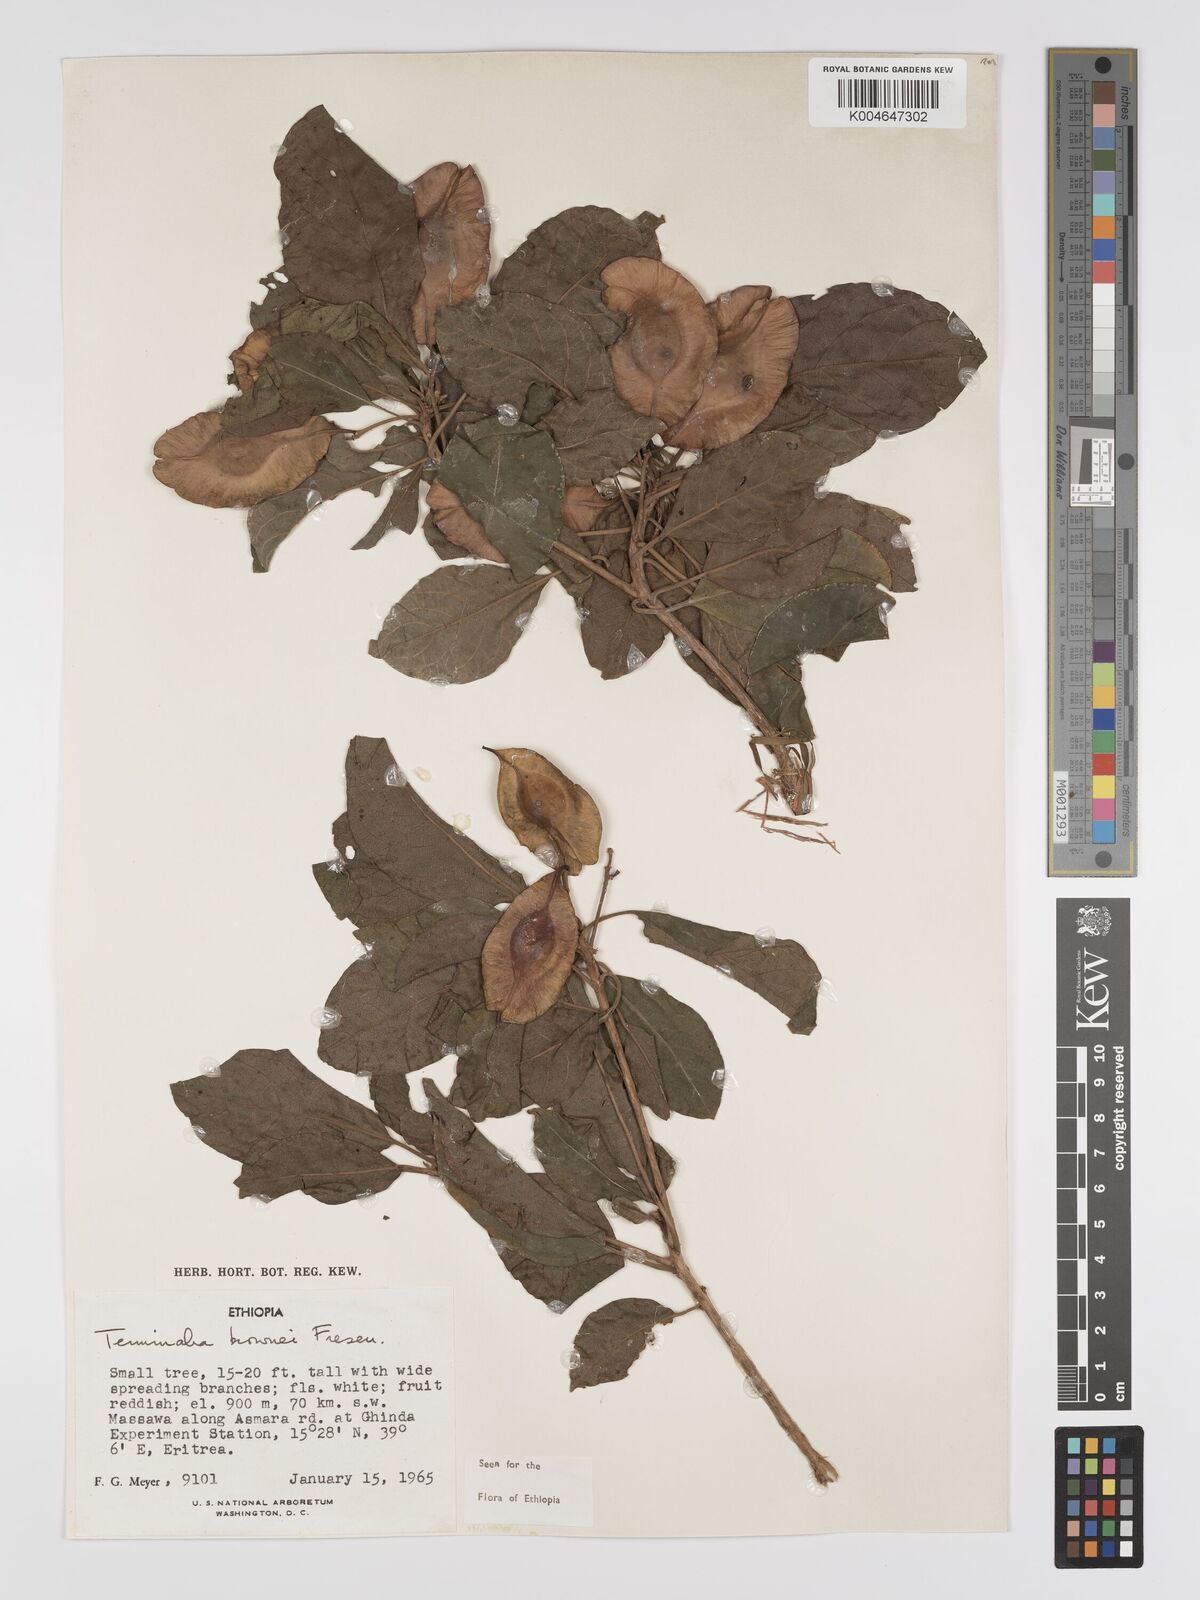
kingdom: Plantae
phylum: Tracheophyta
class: Magnoliopsida
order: Myrtales
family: Combretaceae
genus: Terminalia
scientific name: Terminalia brownii
